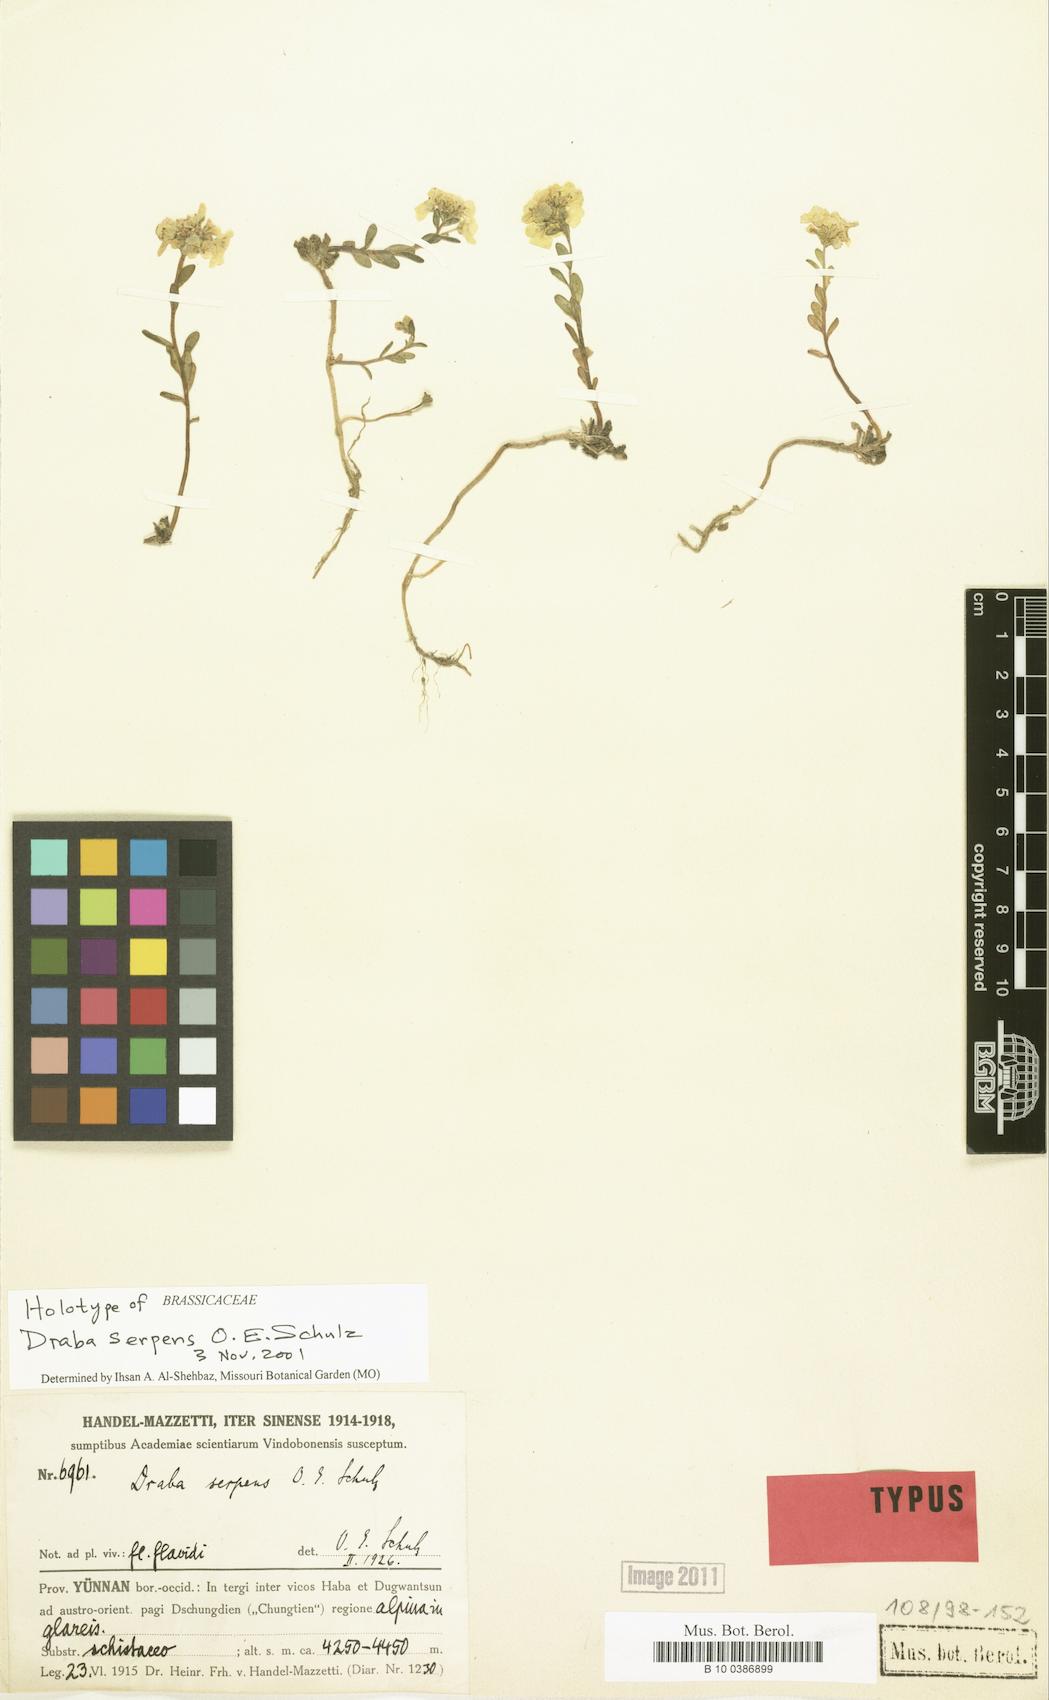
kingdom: Plantae
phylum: Tracheophyta
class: Magnoliopsida
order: Brassicales
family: Brassicaceae
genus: Hemilophia
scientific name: Hemilophia serpens
